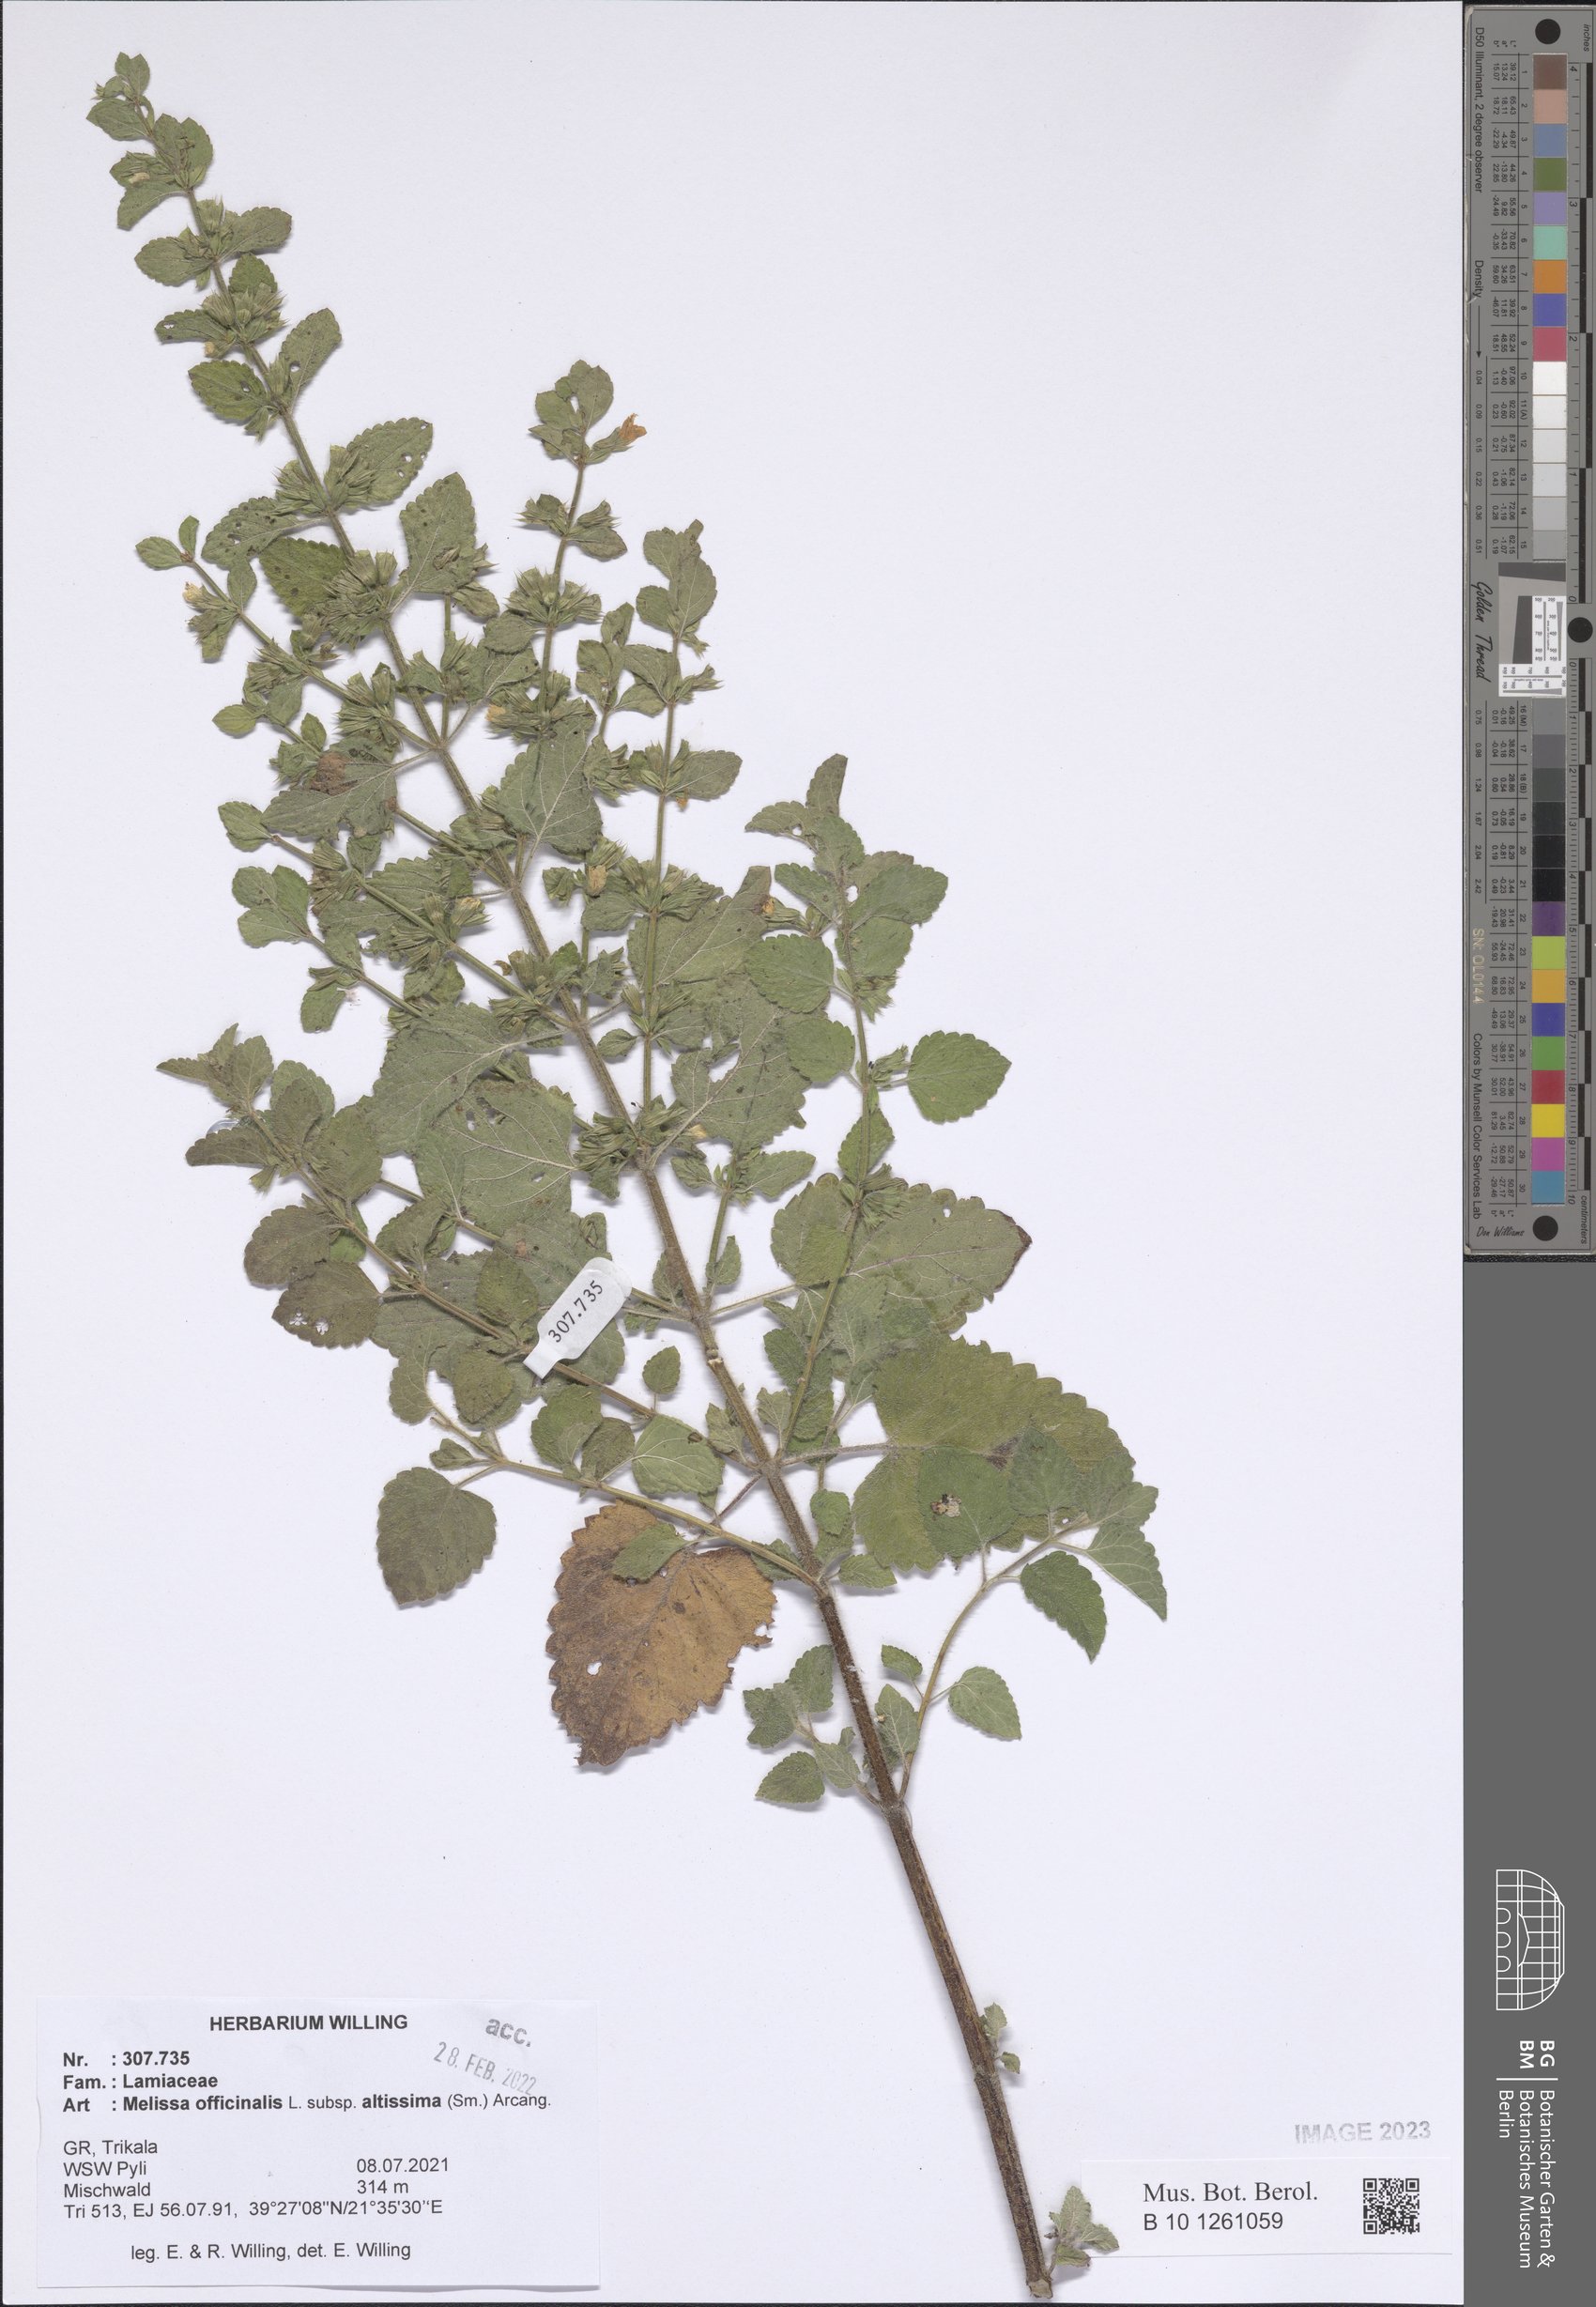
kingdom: Plantae
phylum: Tracheophyta
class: Magnoliopsida
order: Lamiales
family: Lamiaceae
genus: Melissa
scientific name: Melissa officinalis
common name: Balm
